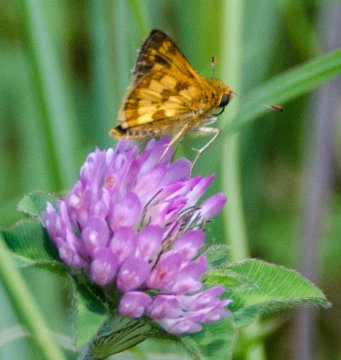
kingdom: Animalia
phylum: Arthropoda
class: Insecta
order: Lepidoptera
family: Hesperiidae
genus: Polites
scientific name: Polites coras
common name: Peck's Skipper
